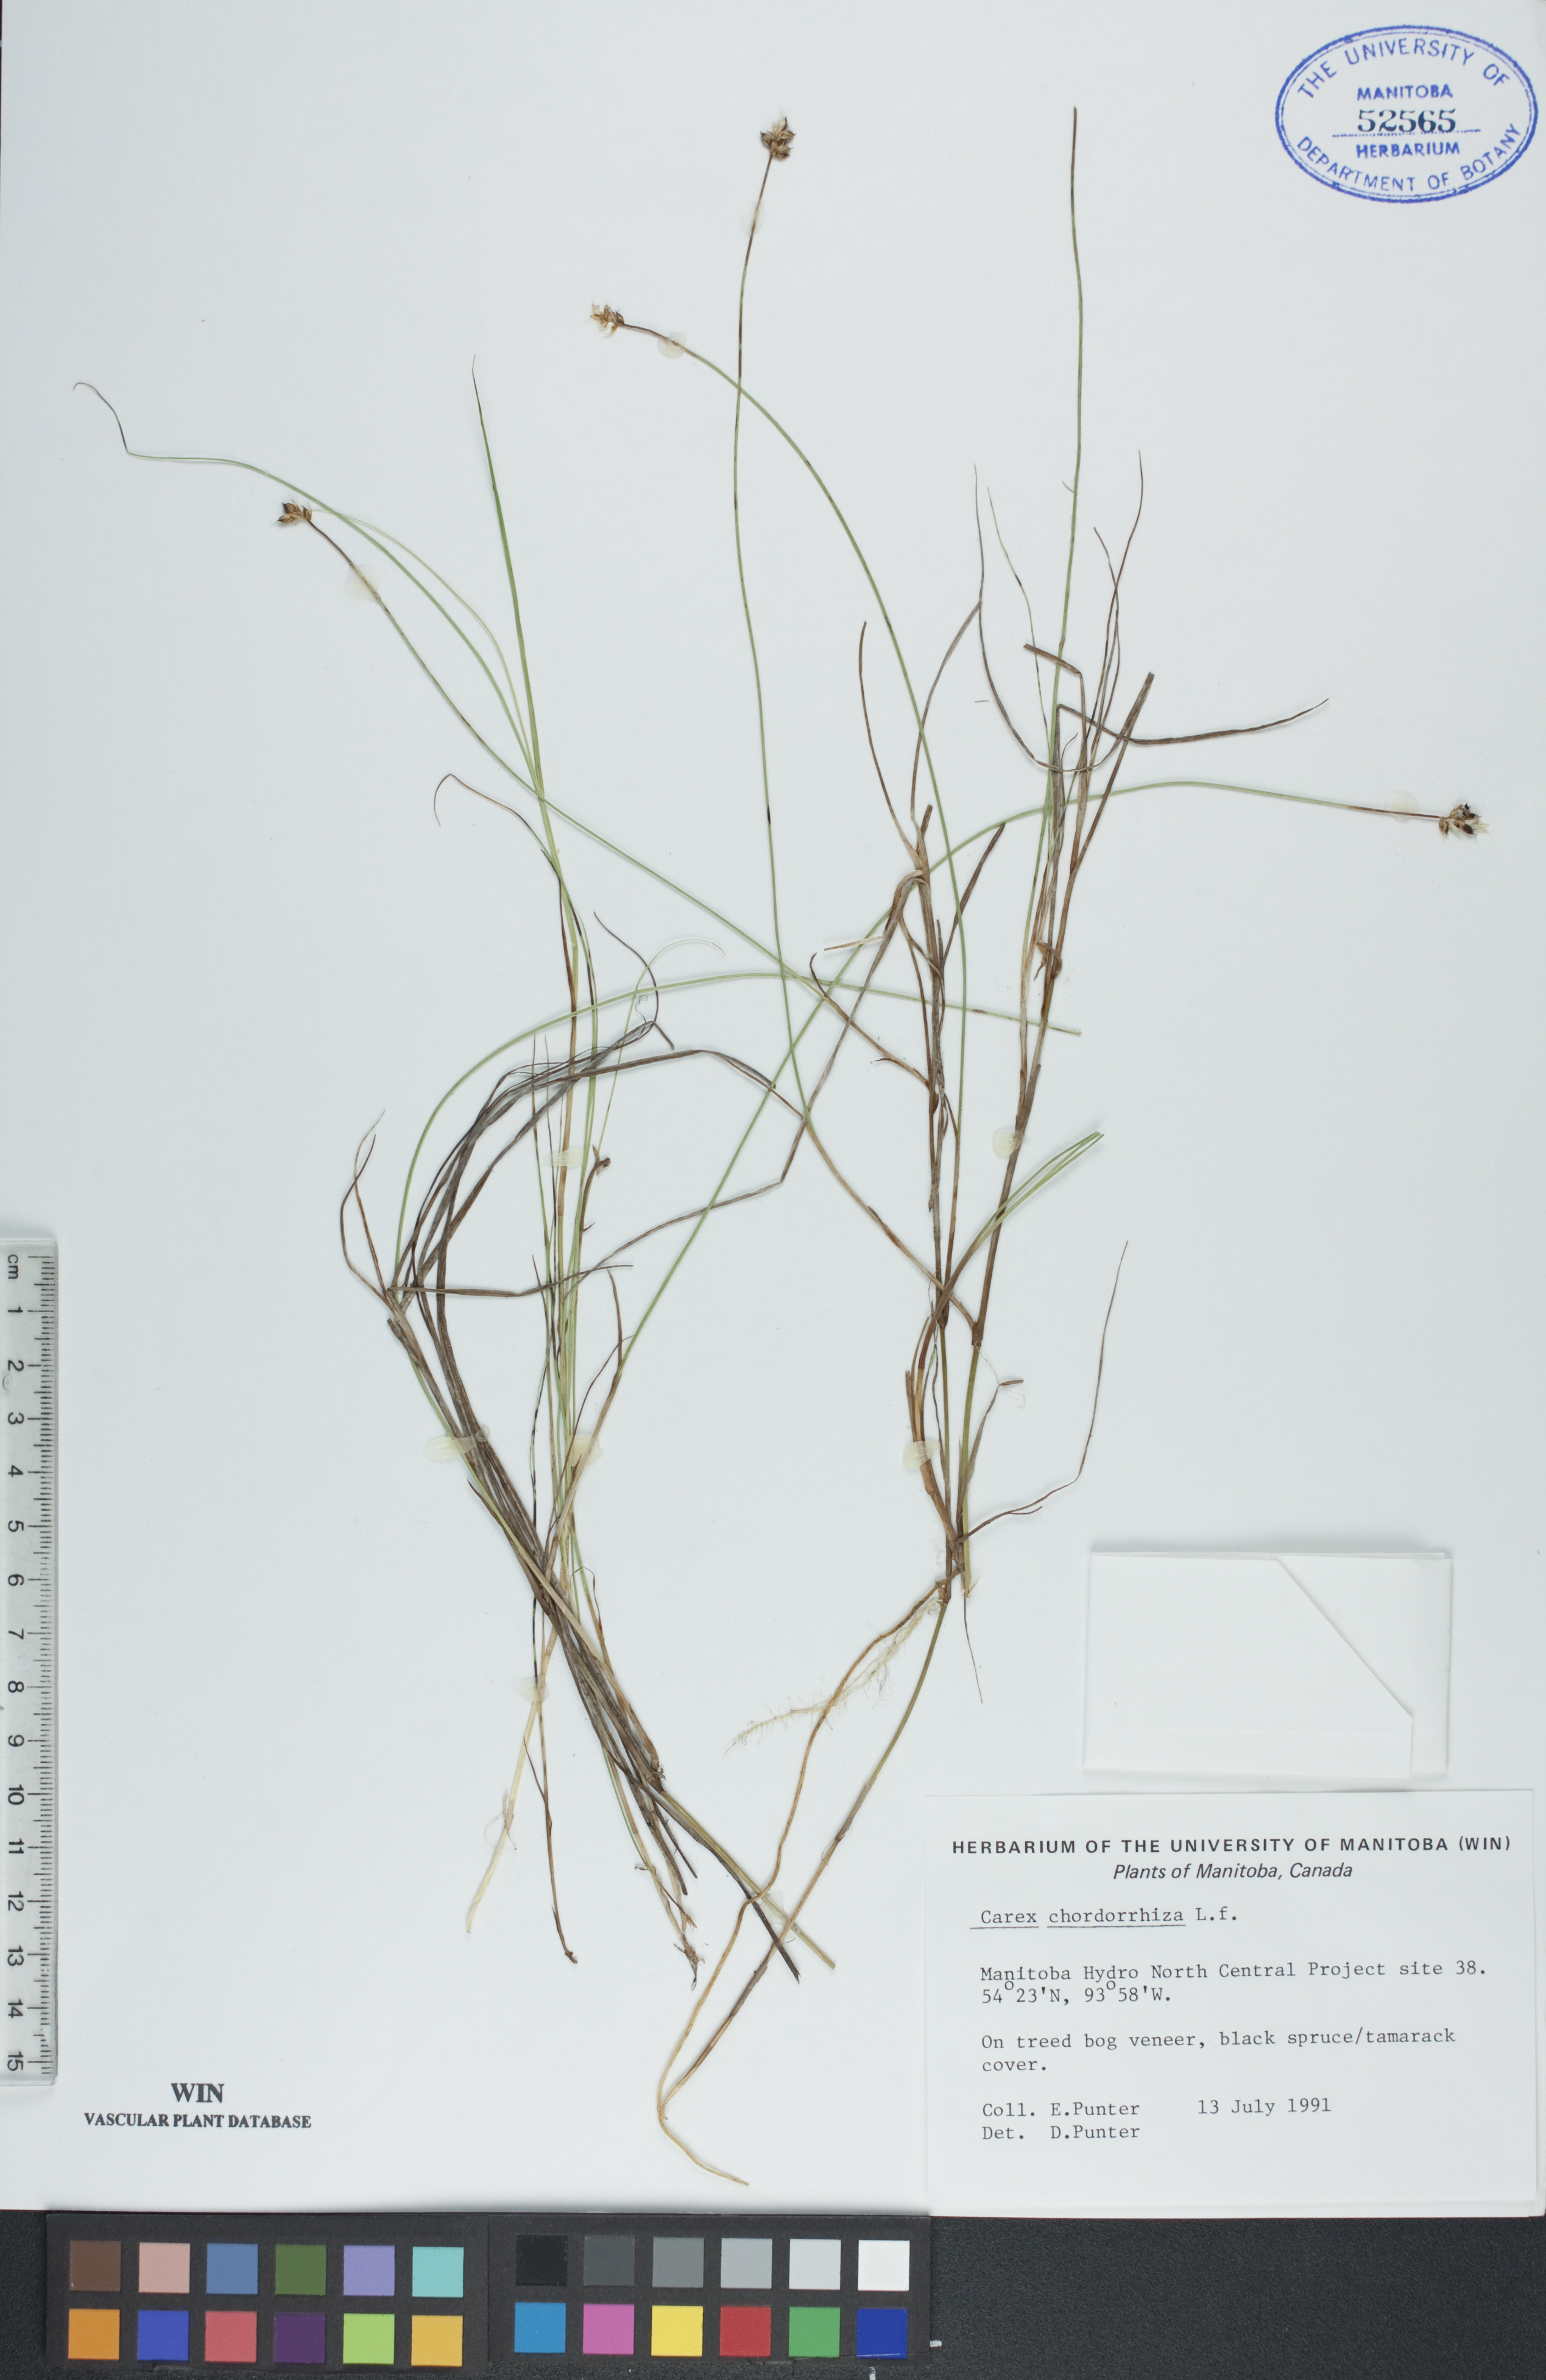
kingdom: Plantae
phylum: Tracheophyta
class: Liliopsida
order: Poales
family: Cyperaceae
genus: Carex
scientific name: Carex chordorrhiza
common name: String sedge
